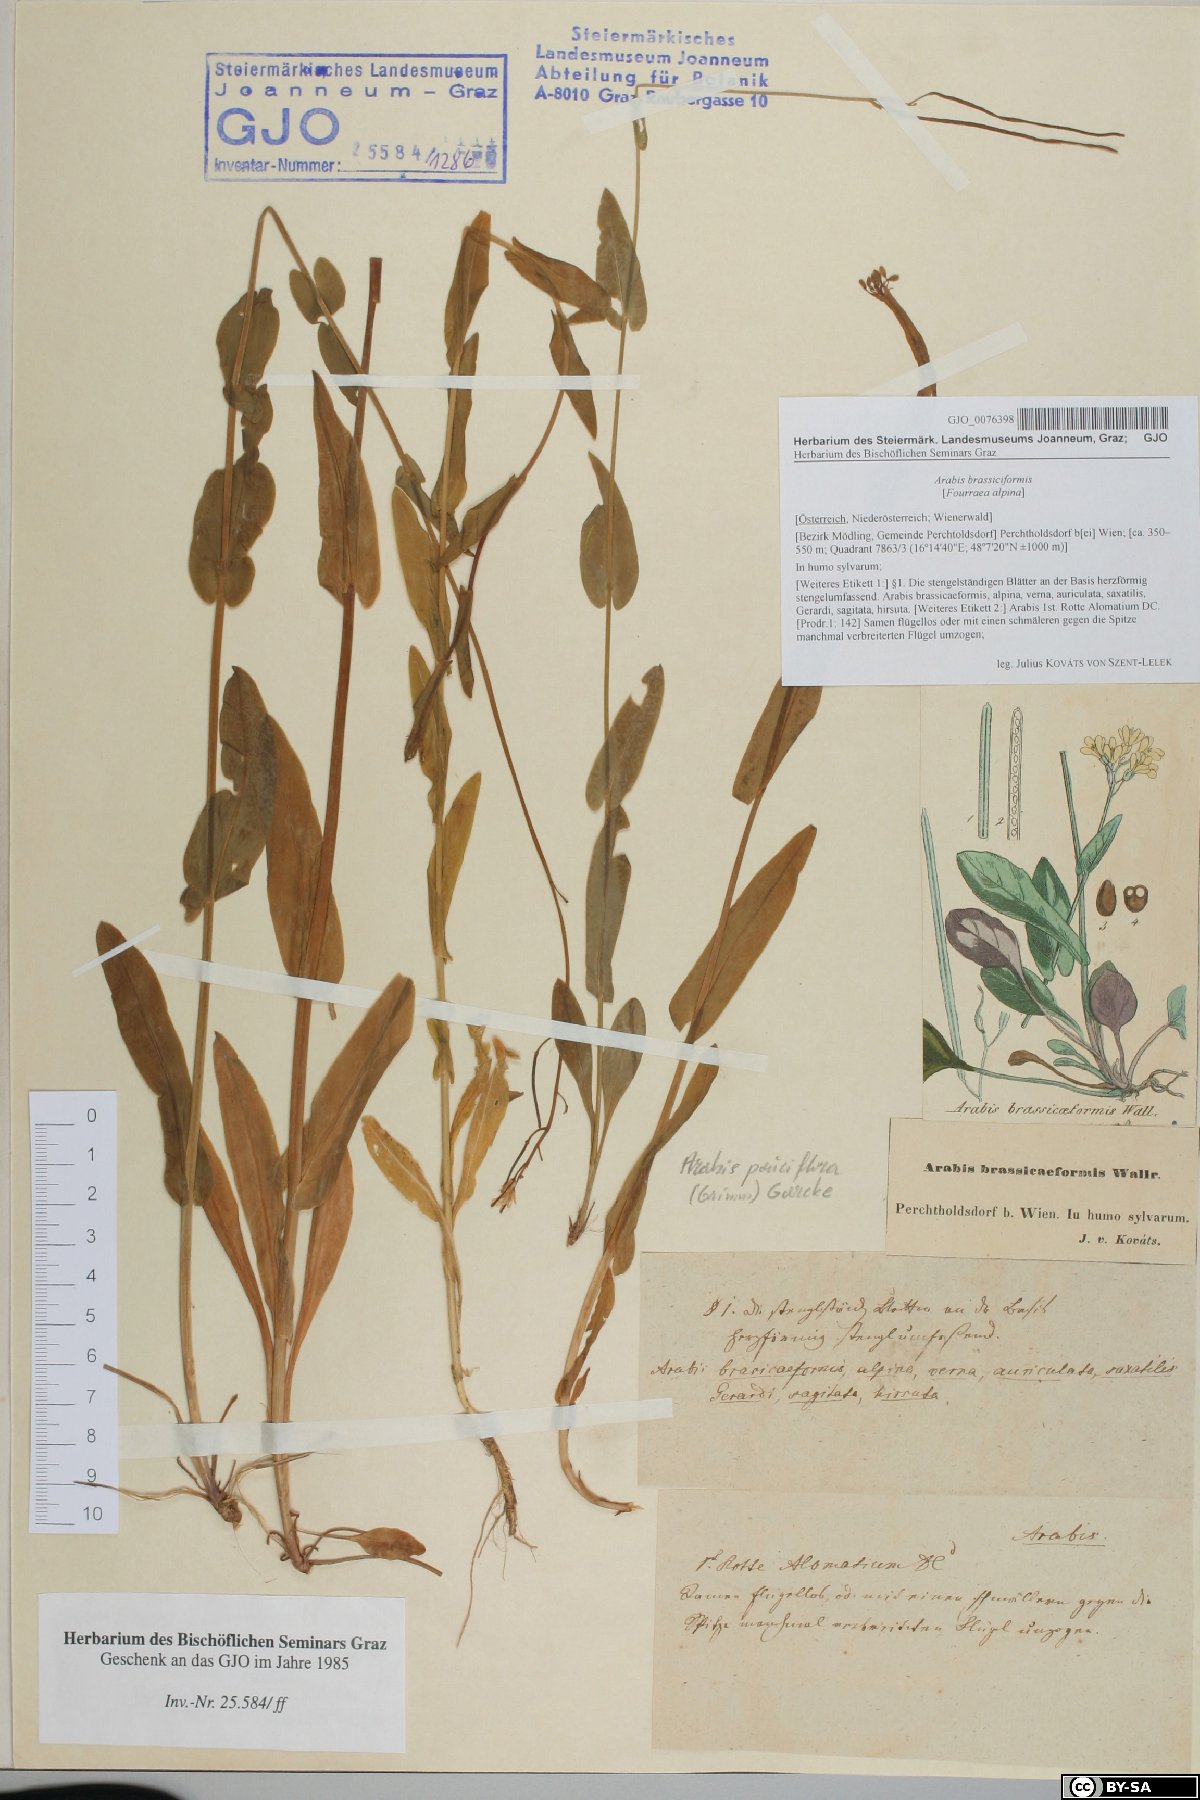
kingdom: Plantae
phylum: Tracheophyta
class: Magnoliopsida
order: Brassicales
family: Brassicaceae
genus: Fourraea
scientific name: Fourraea alpina
